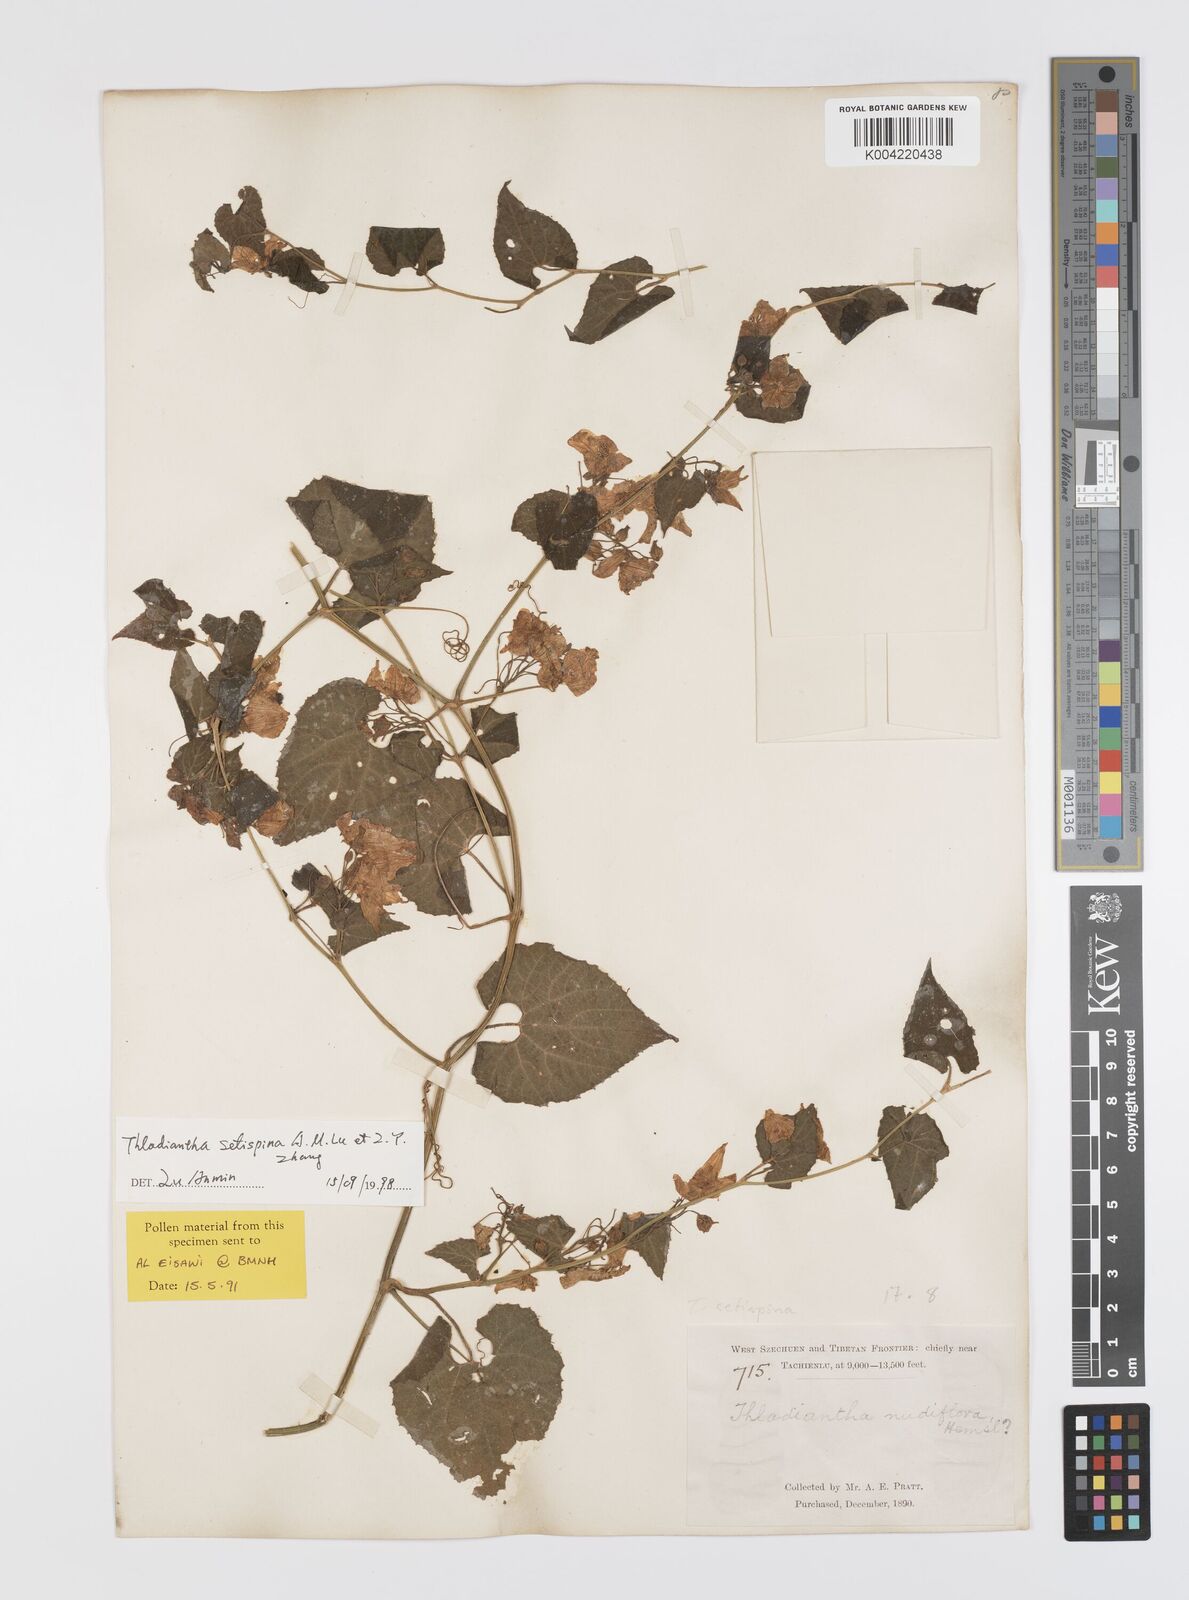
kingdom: Plantae
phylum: Tracheophyta
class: Magnoliopsida
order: Cucurbitales
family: Cucurbitaceae
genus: Thladiantha
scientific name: Thladiantha setispina
